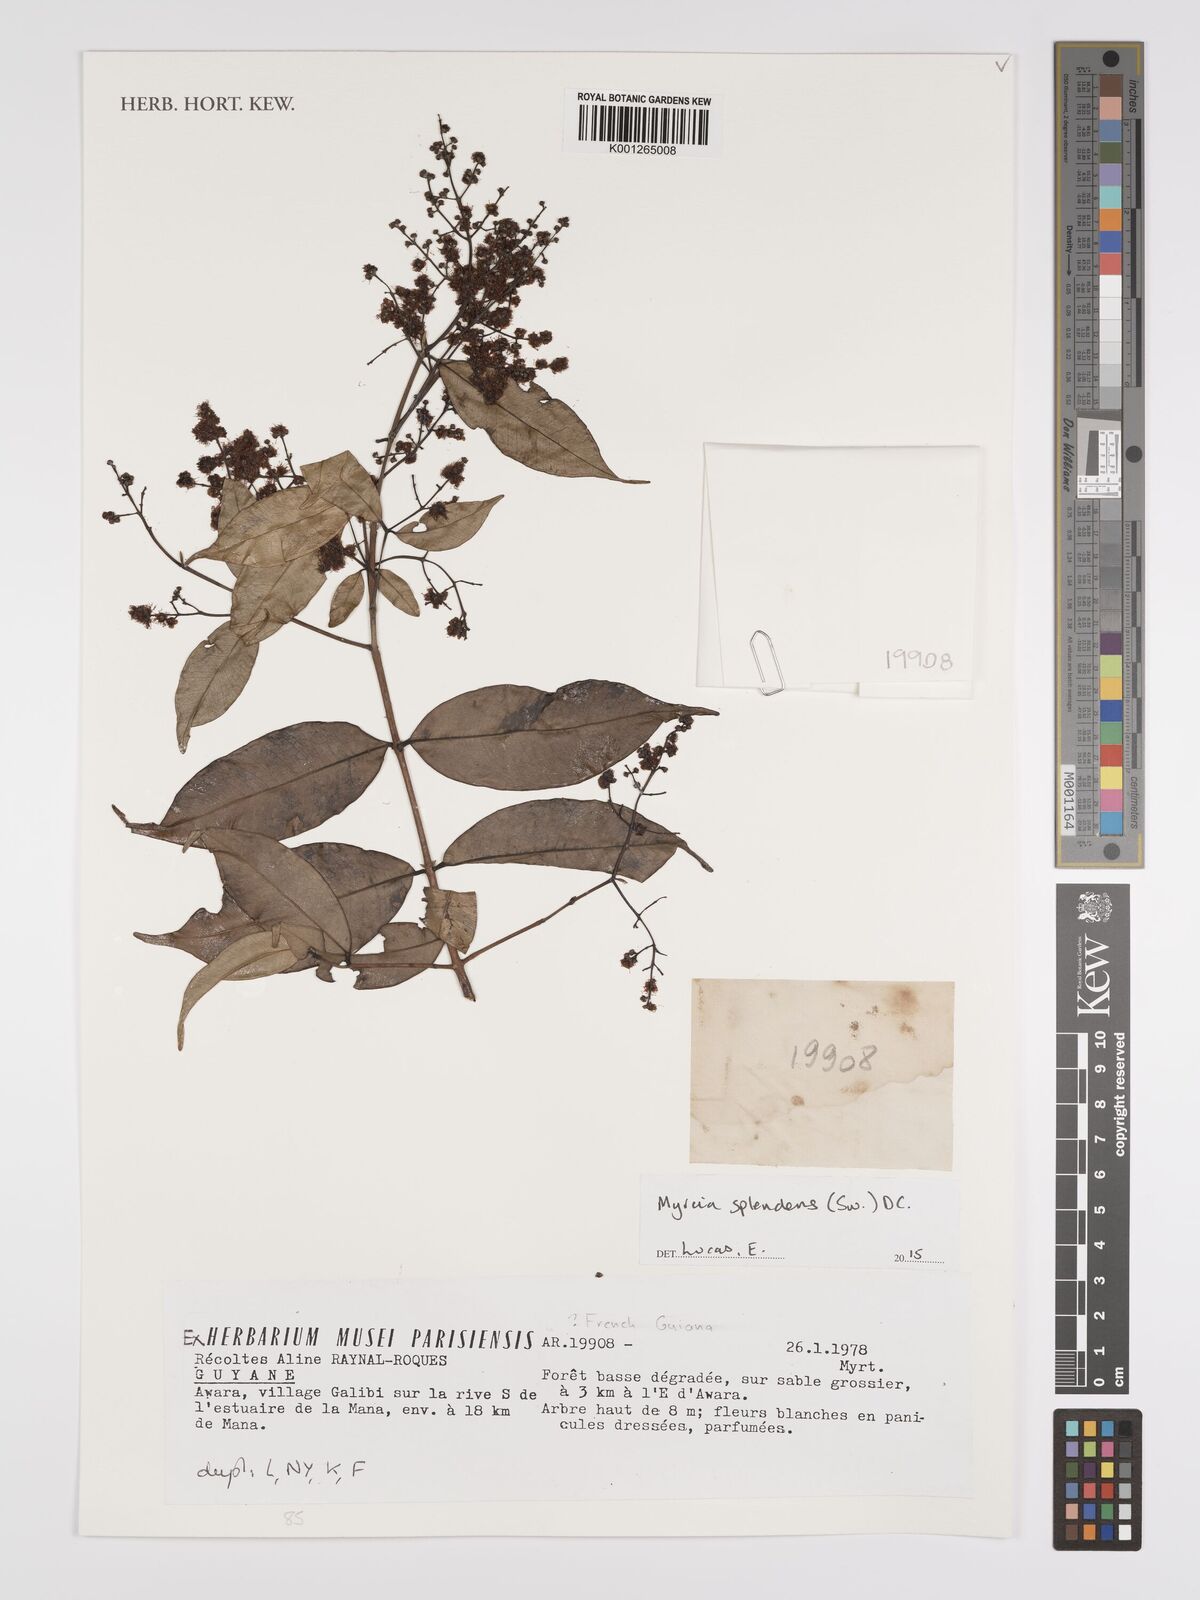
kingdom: Plantae
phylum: Tracheophyta
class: Magnoliopsida
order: Myrtales
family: Myrtaceae
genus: Myrcia
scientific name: Myrcia splendens
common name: Surinam cherry
